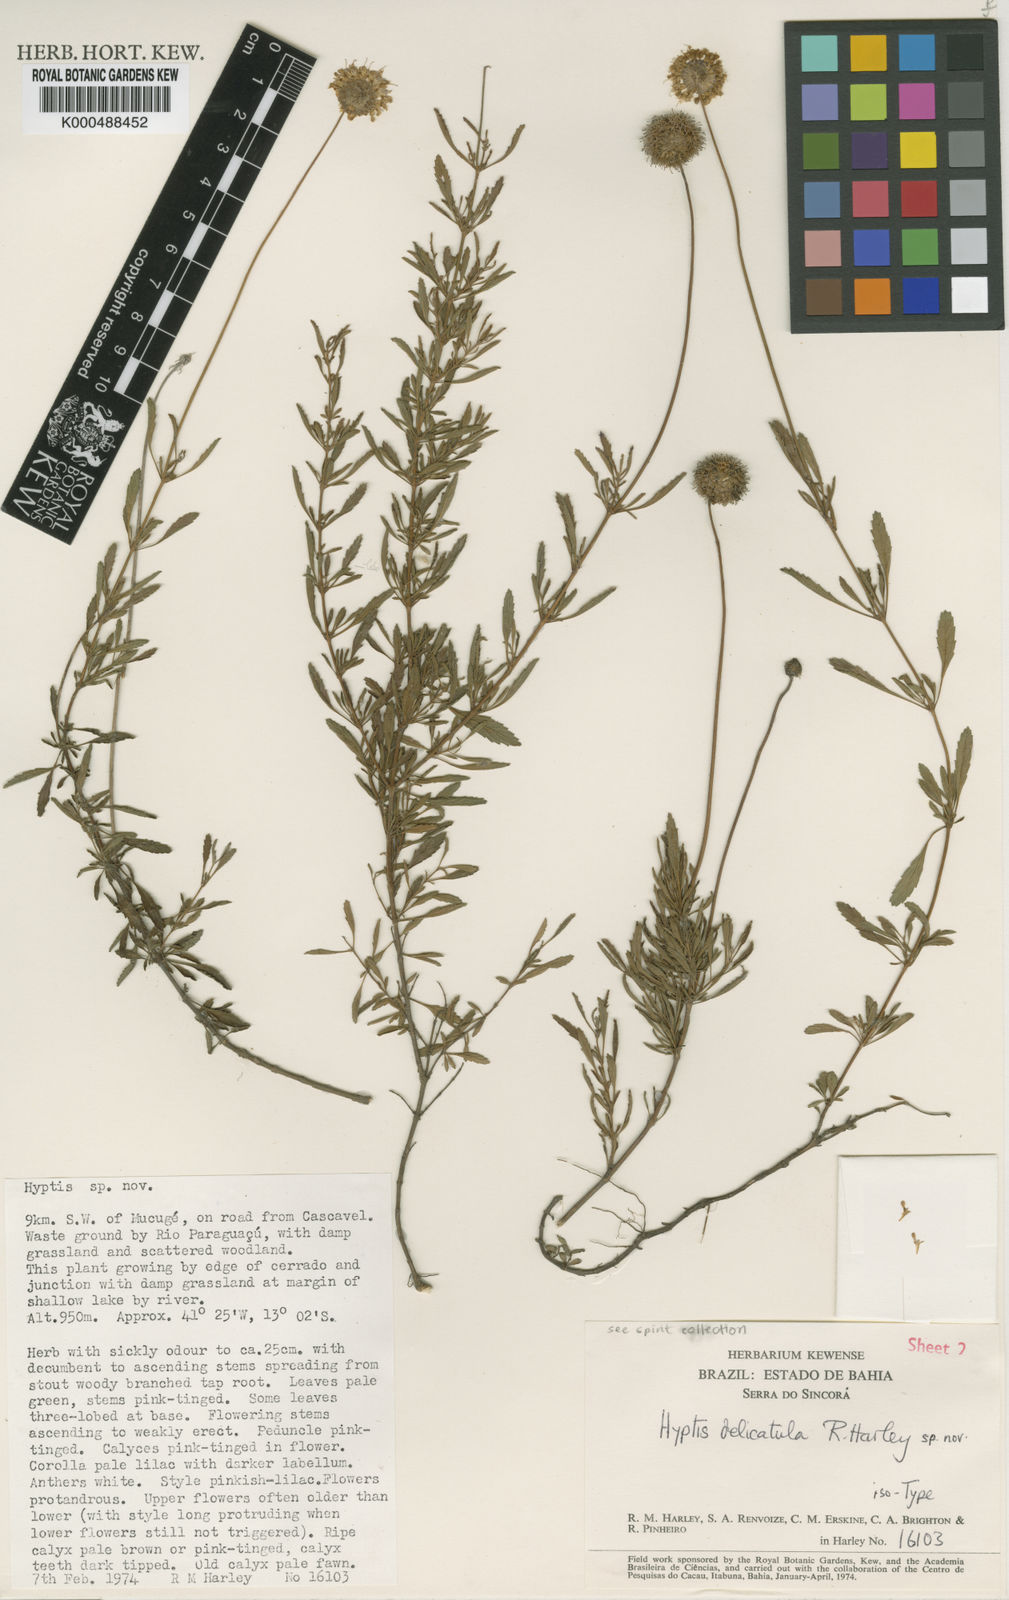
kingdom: Plantae
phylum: Tracheophyta
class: Magnoliopsida
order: Lamiales
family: Lamiaceae
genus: Hyptis
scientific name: Hyptis
